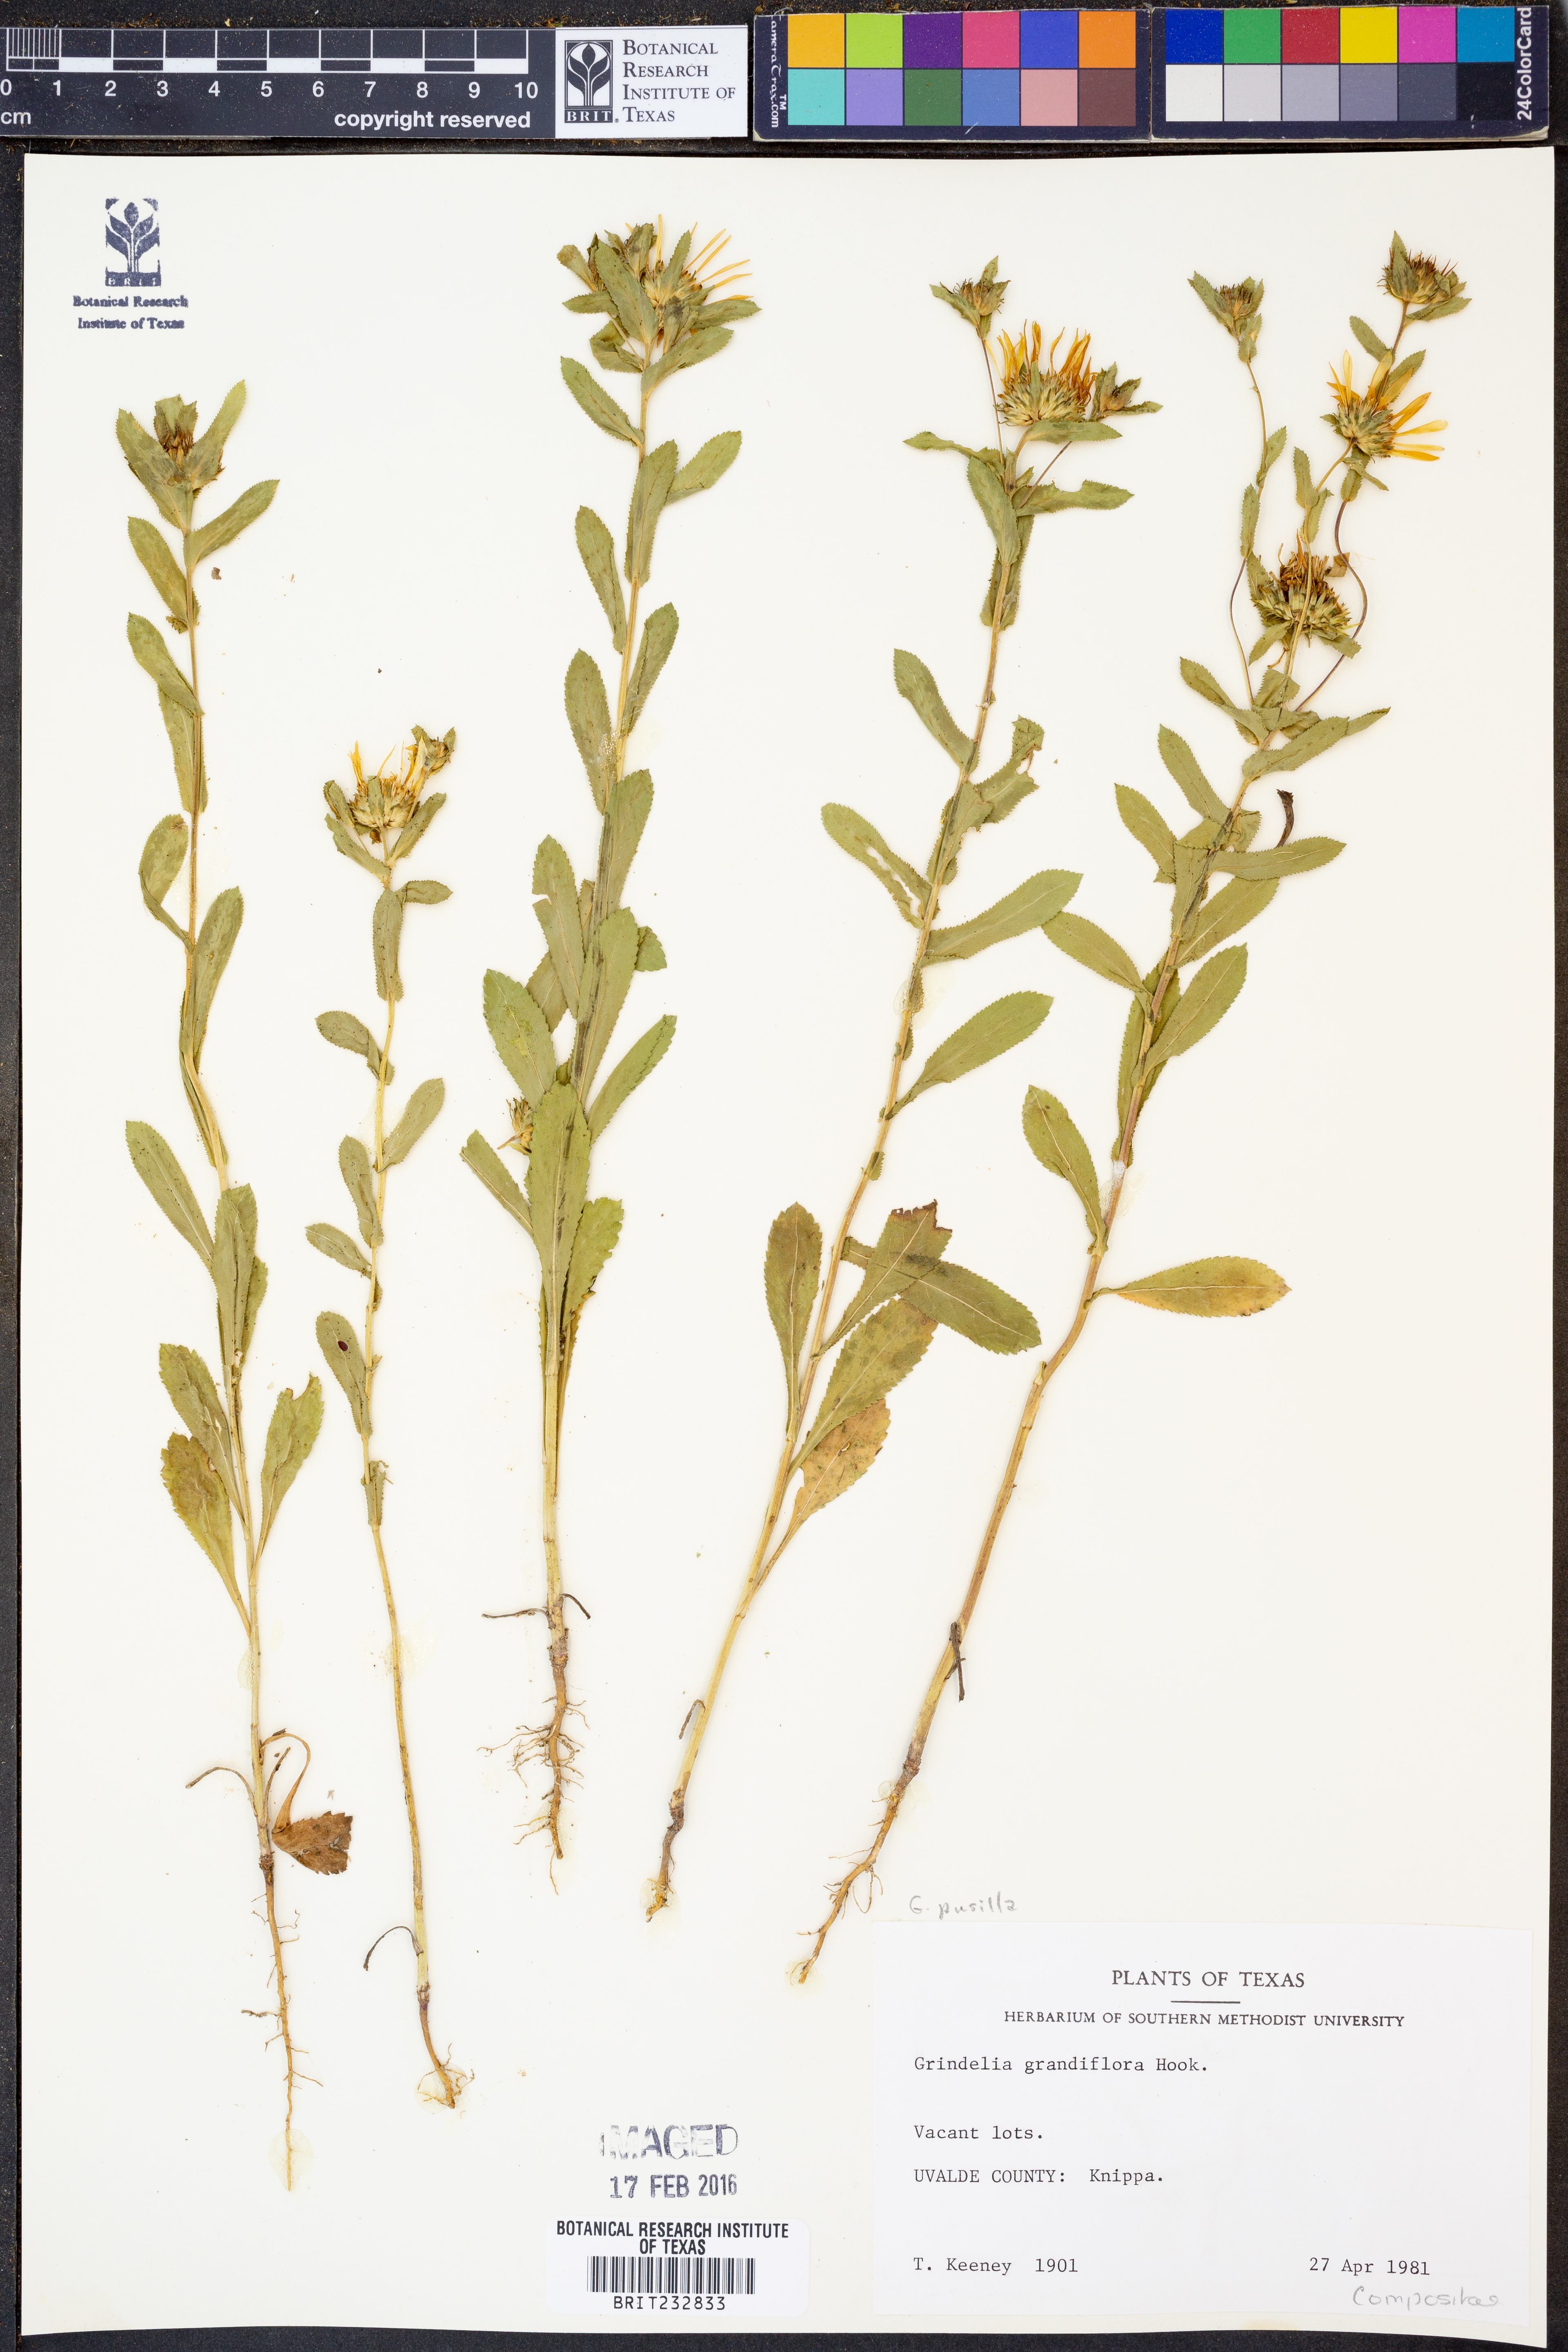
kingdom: Plantae
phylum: Tracheophyta
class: Magnoliopsida
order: Asterales
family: Asteraceae
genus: Grindelia
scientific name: Grindelia pusilla
